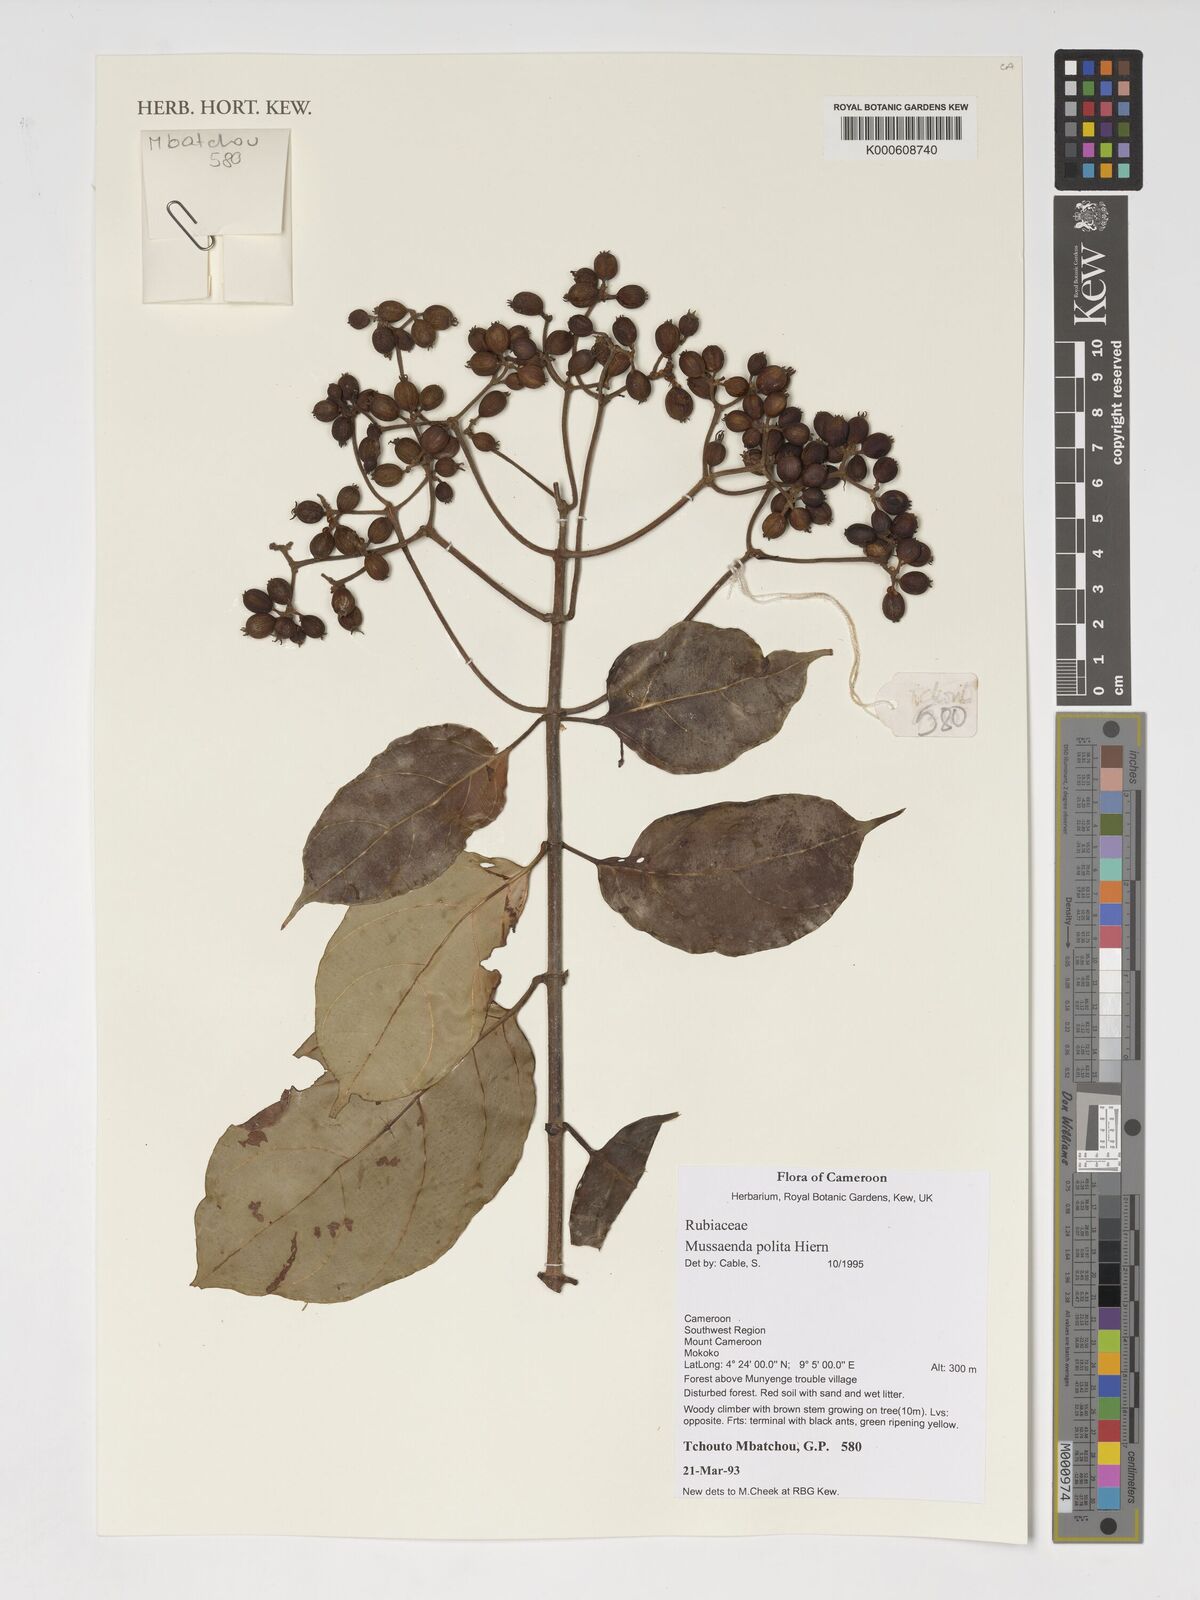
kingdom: Plantae
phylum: Tracheophyta
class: Magnoliopsida
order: Gentianales
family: Rubiaceae
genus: Mussaenda
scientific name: Mussaenda polita
